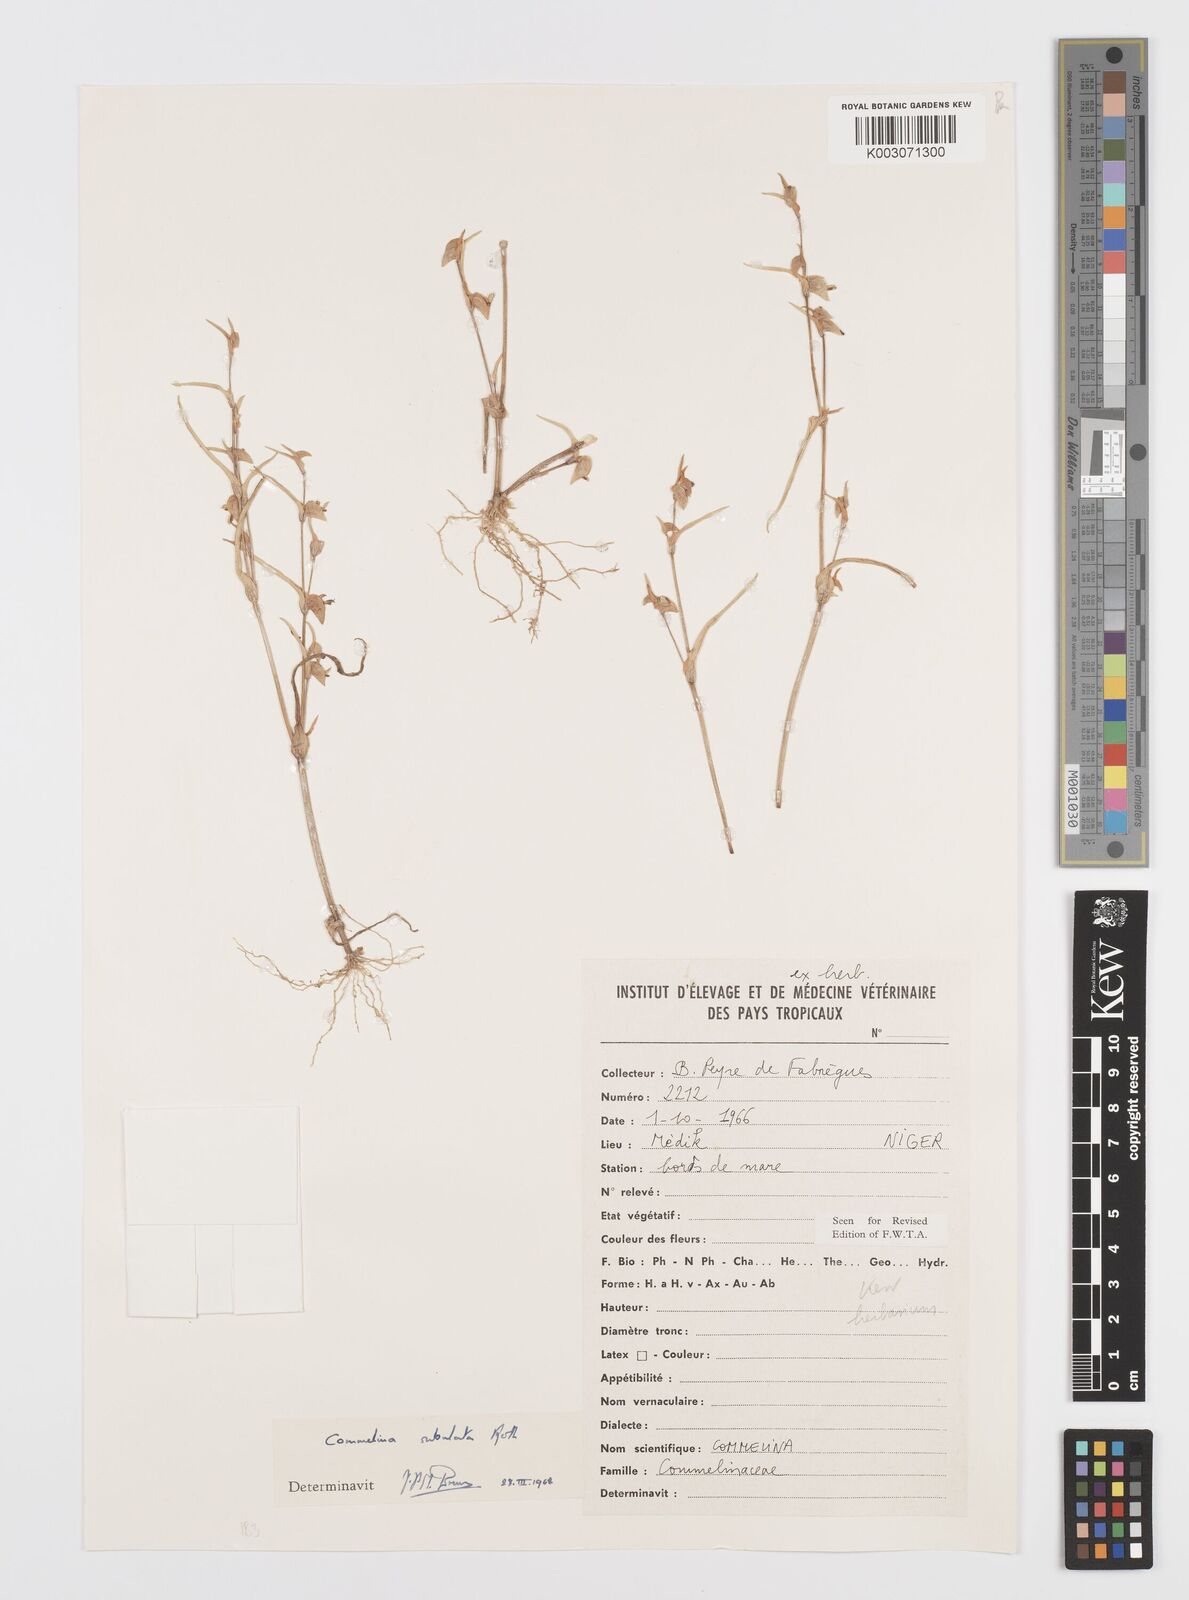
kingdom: Plantae
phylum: Tracheophyta
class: Liliopsida
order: Commelinales
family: Commelinaceae
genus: Commelina
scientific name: Commelina subulata
